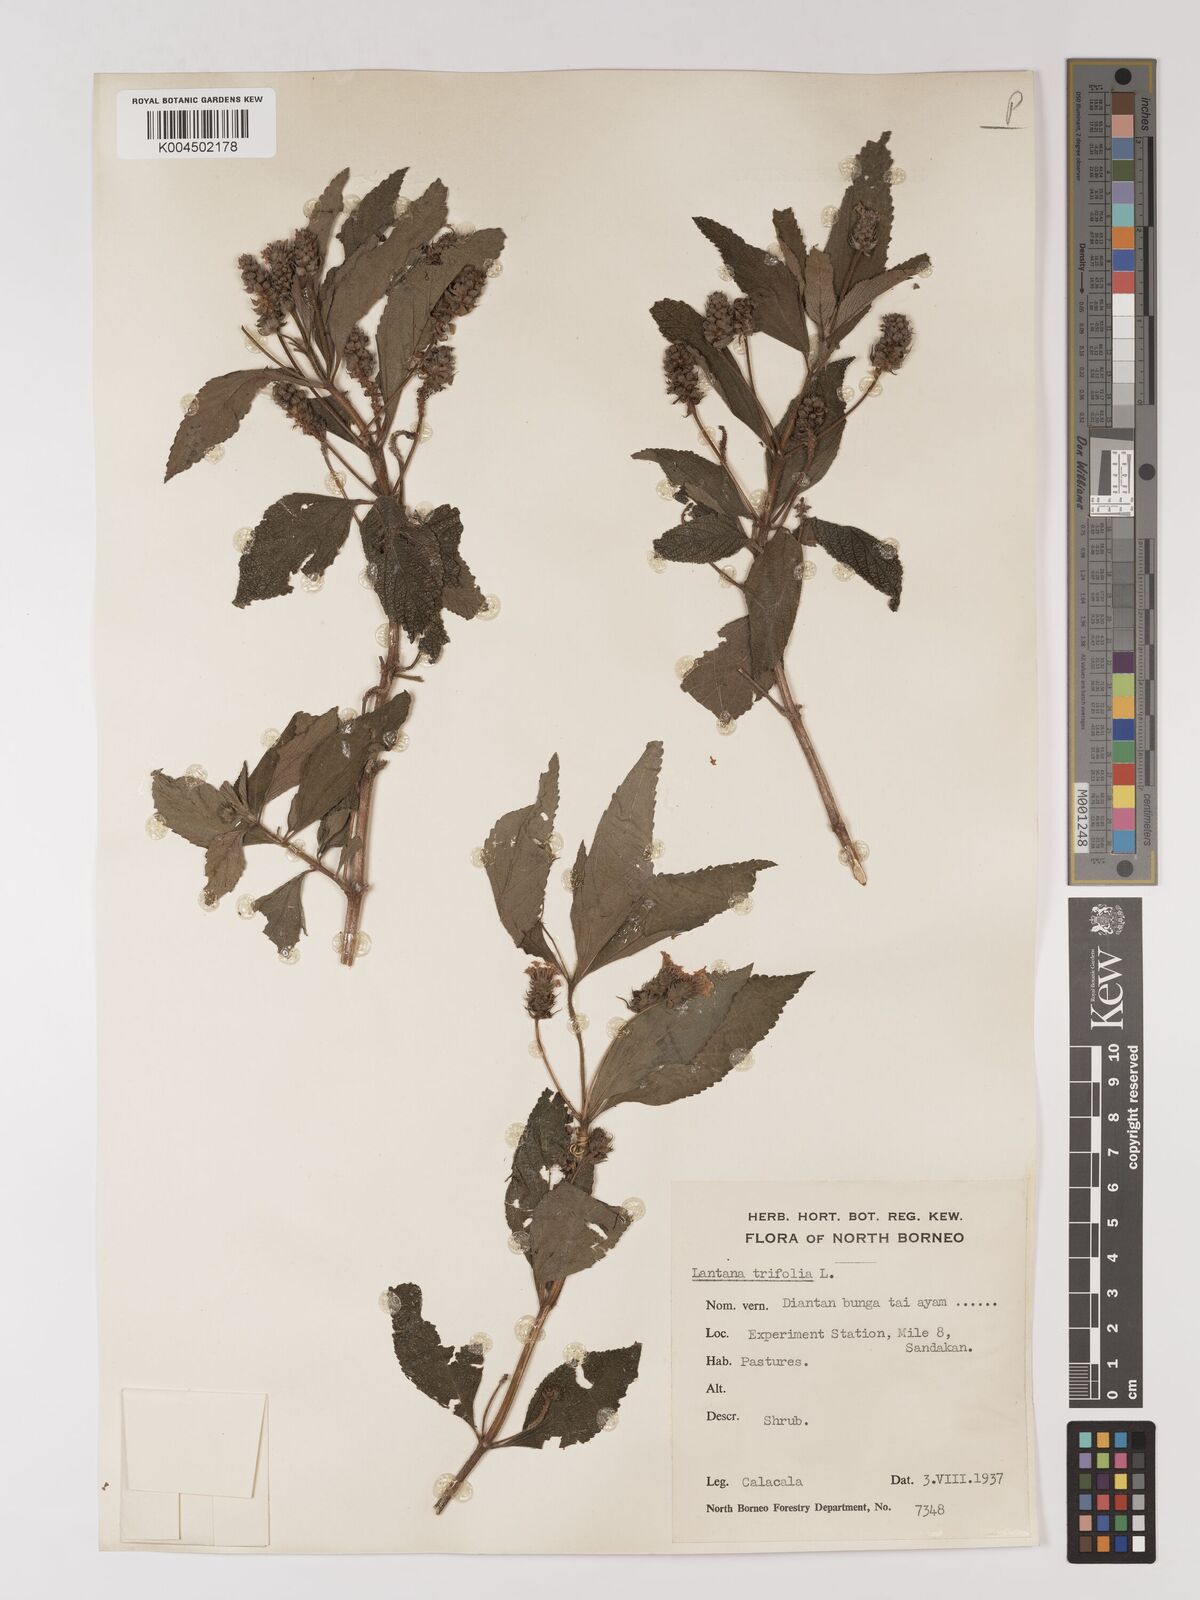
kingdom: Plantae
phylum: Tracheophyta
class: Magnoliopsida
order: Lamiales
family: Verbenaceae
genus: Lantana
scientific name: Lantana trifolia
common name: Sweet-sage
